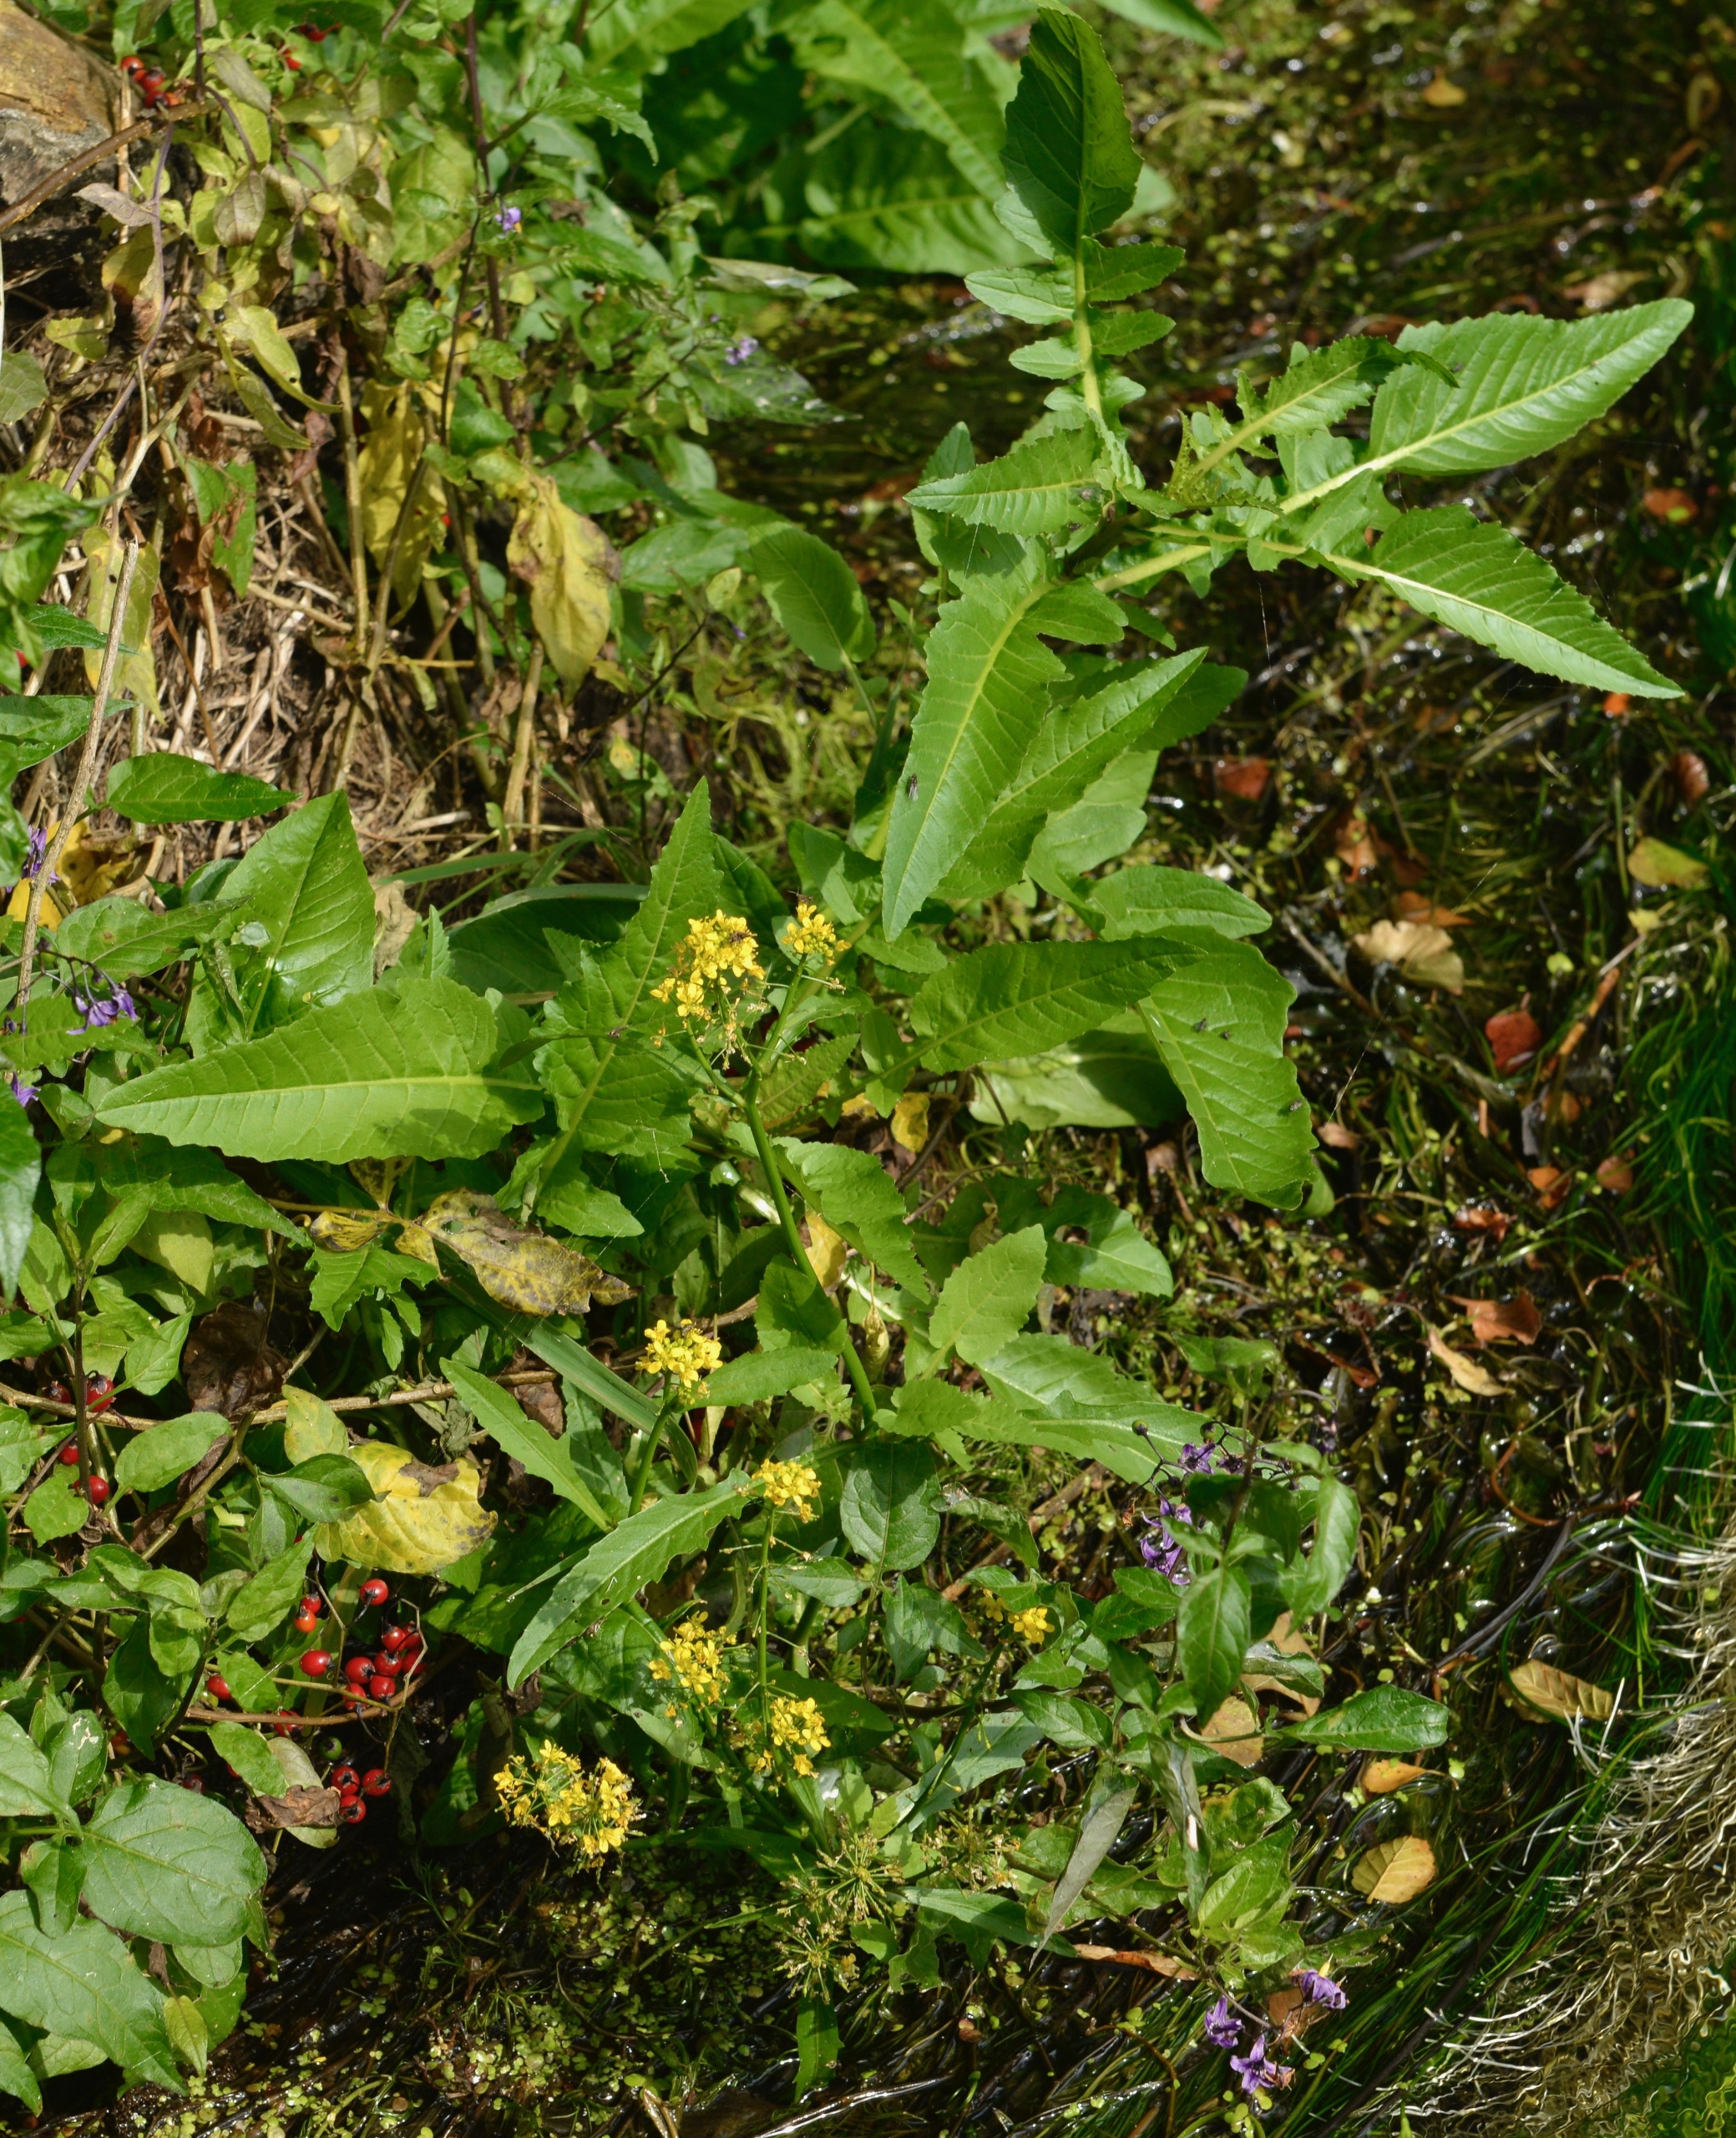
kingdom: Plantae
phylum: Tracheophyta
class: Magnoliopsida
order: Brassicales
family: Brassicaceae
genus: Rorippa
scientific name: Rorippa amphibia
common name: Vandpeberrod
